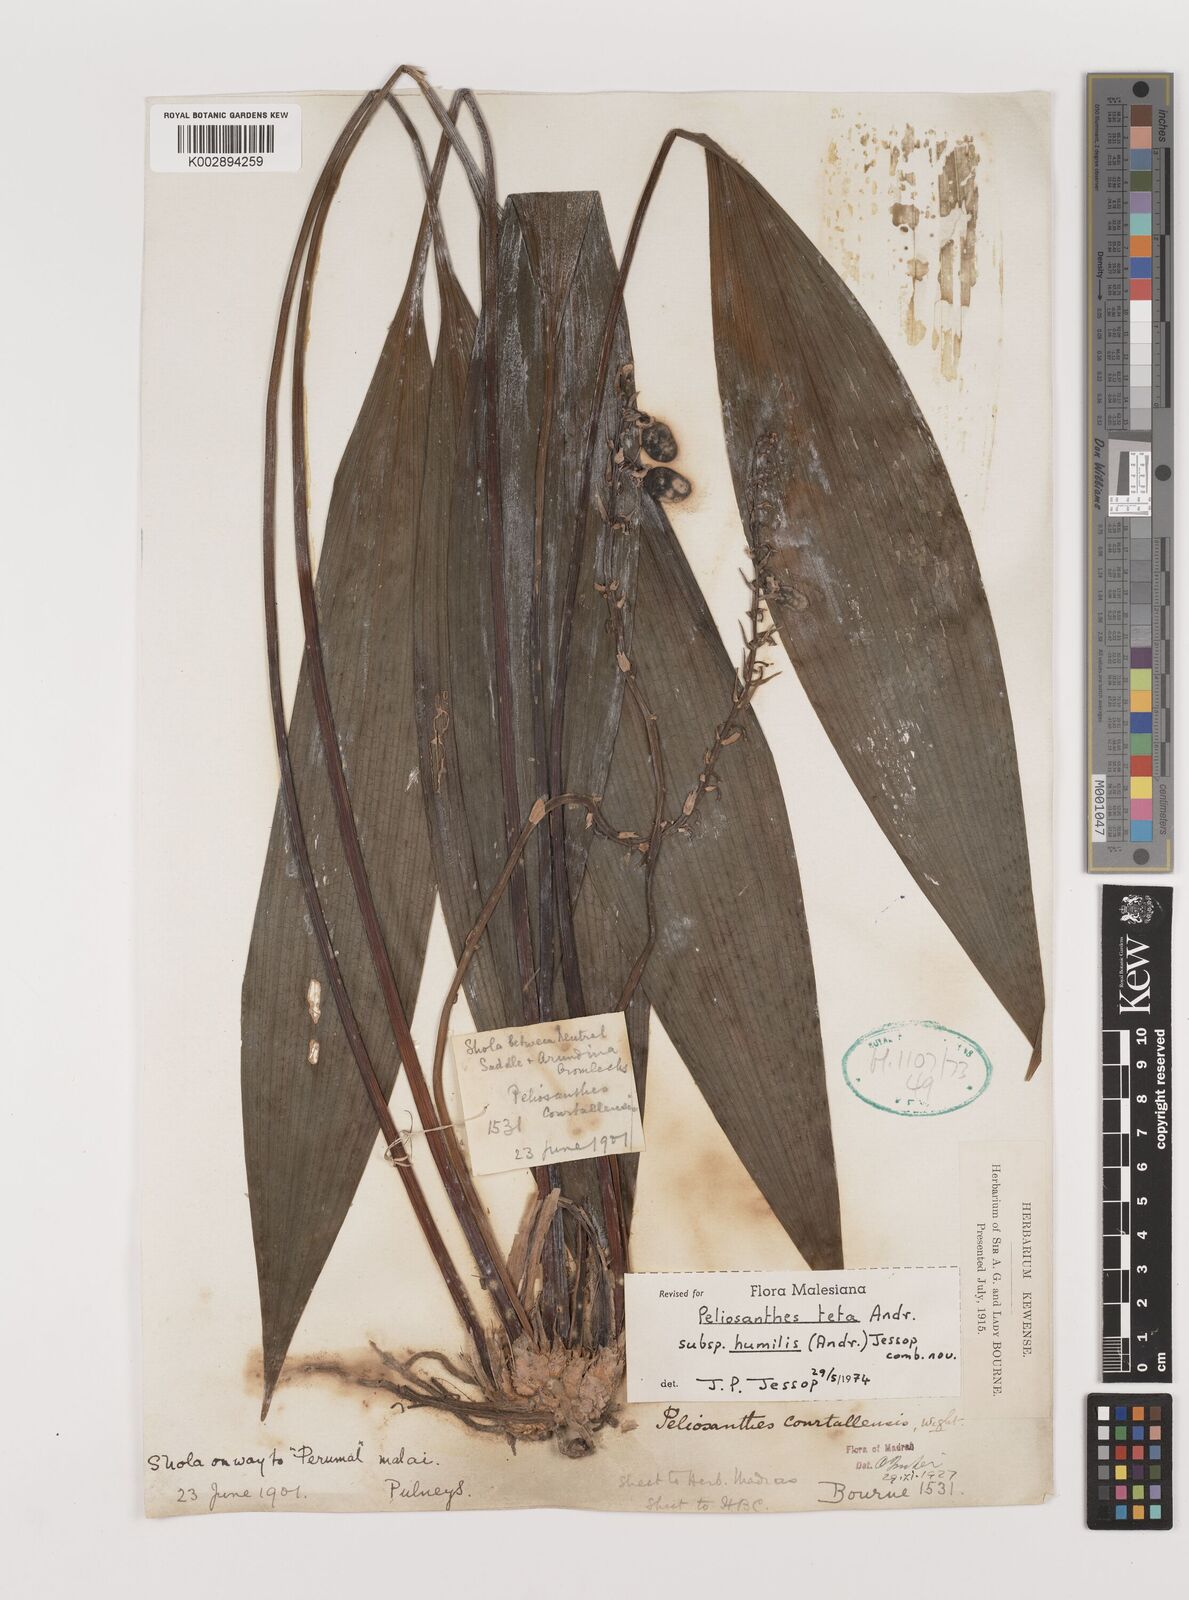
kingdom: Plantae
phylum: Tracheophyta
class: Liliopsida
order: Asparagales
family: Asparagaceae
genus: Peliosanthes
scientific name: Peliosanthes teta
